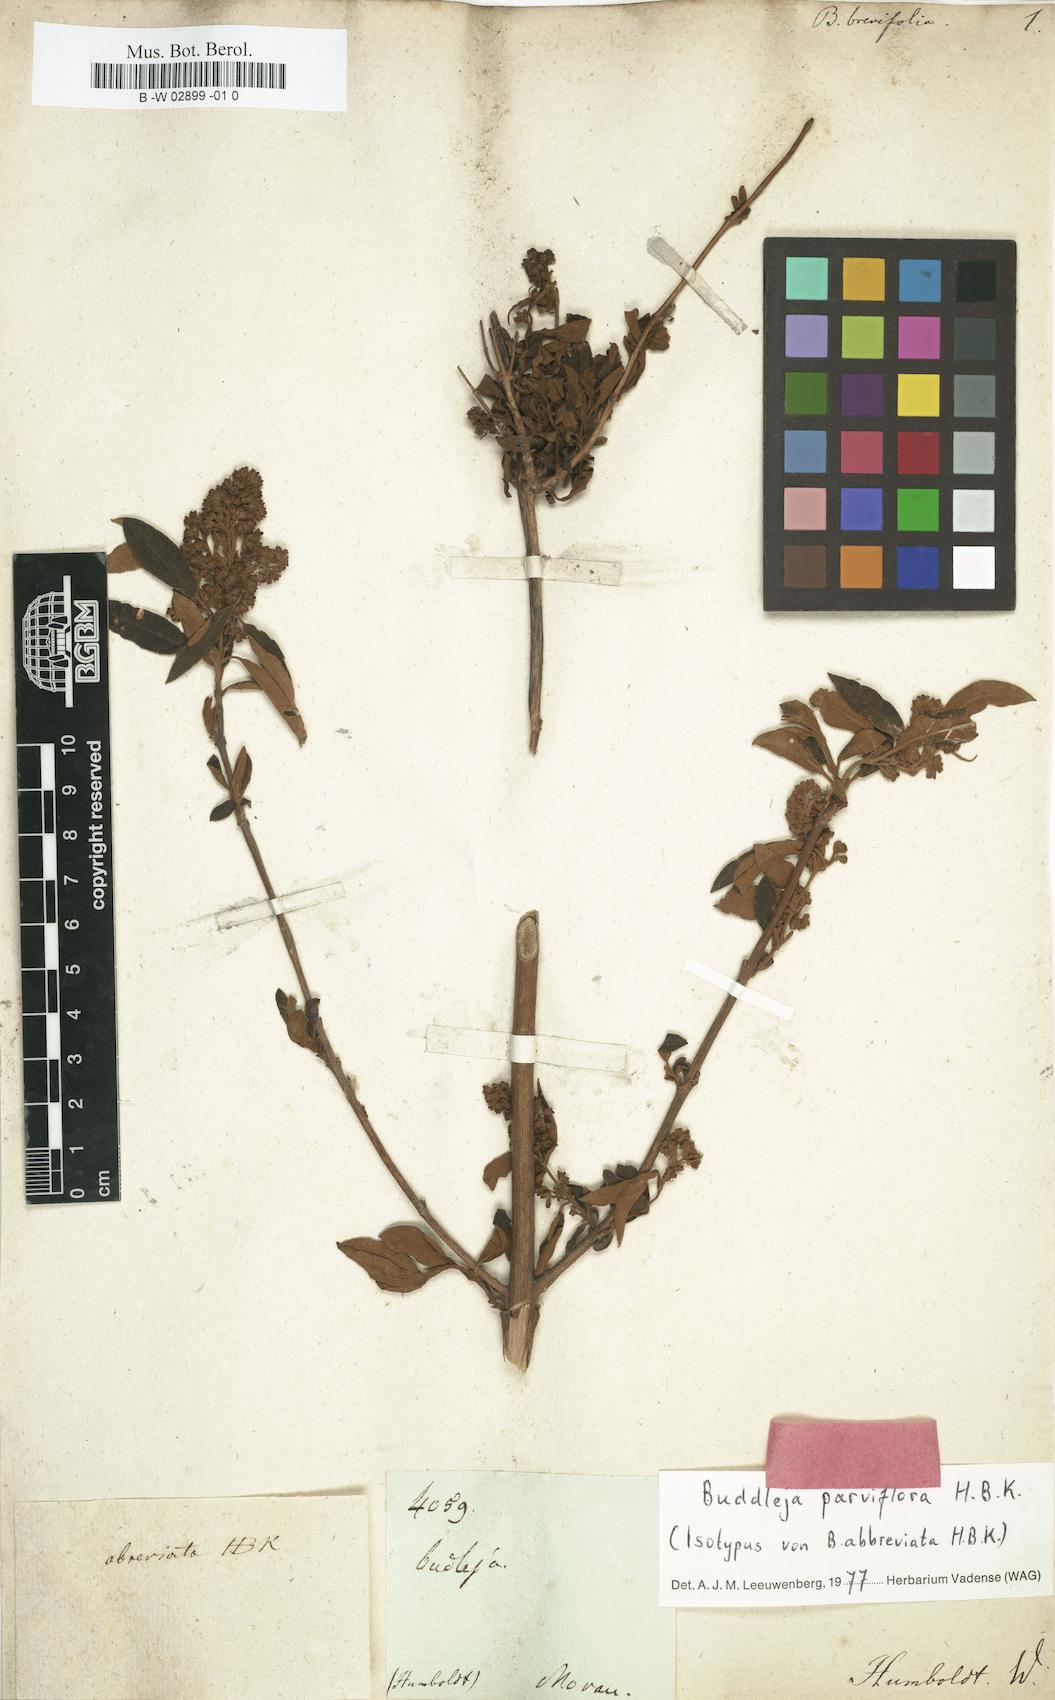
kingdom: Plantae
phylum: Tracheophyta
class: Magnoliopsida
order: Lamiales
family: Scrophulariaceae
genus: Buddleja
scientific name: Buddleja parviflora
